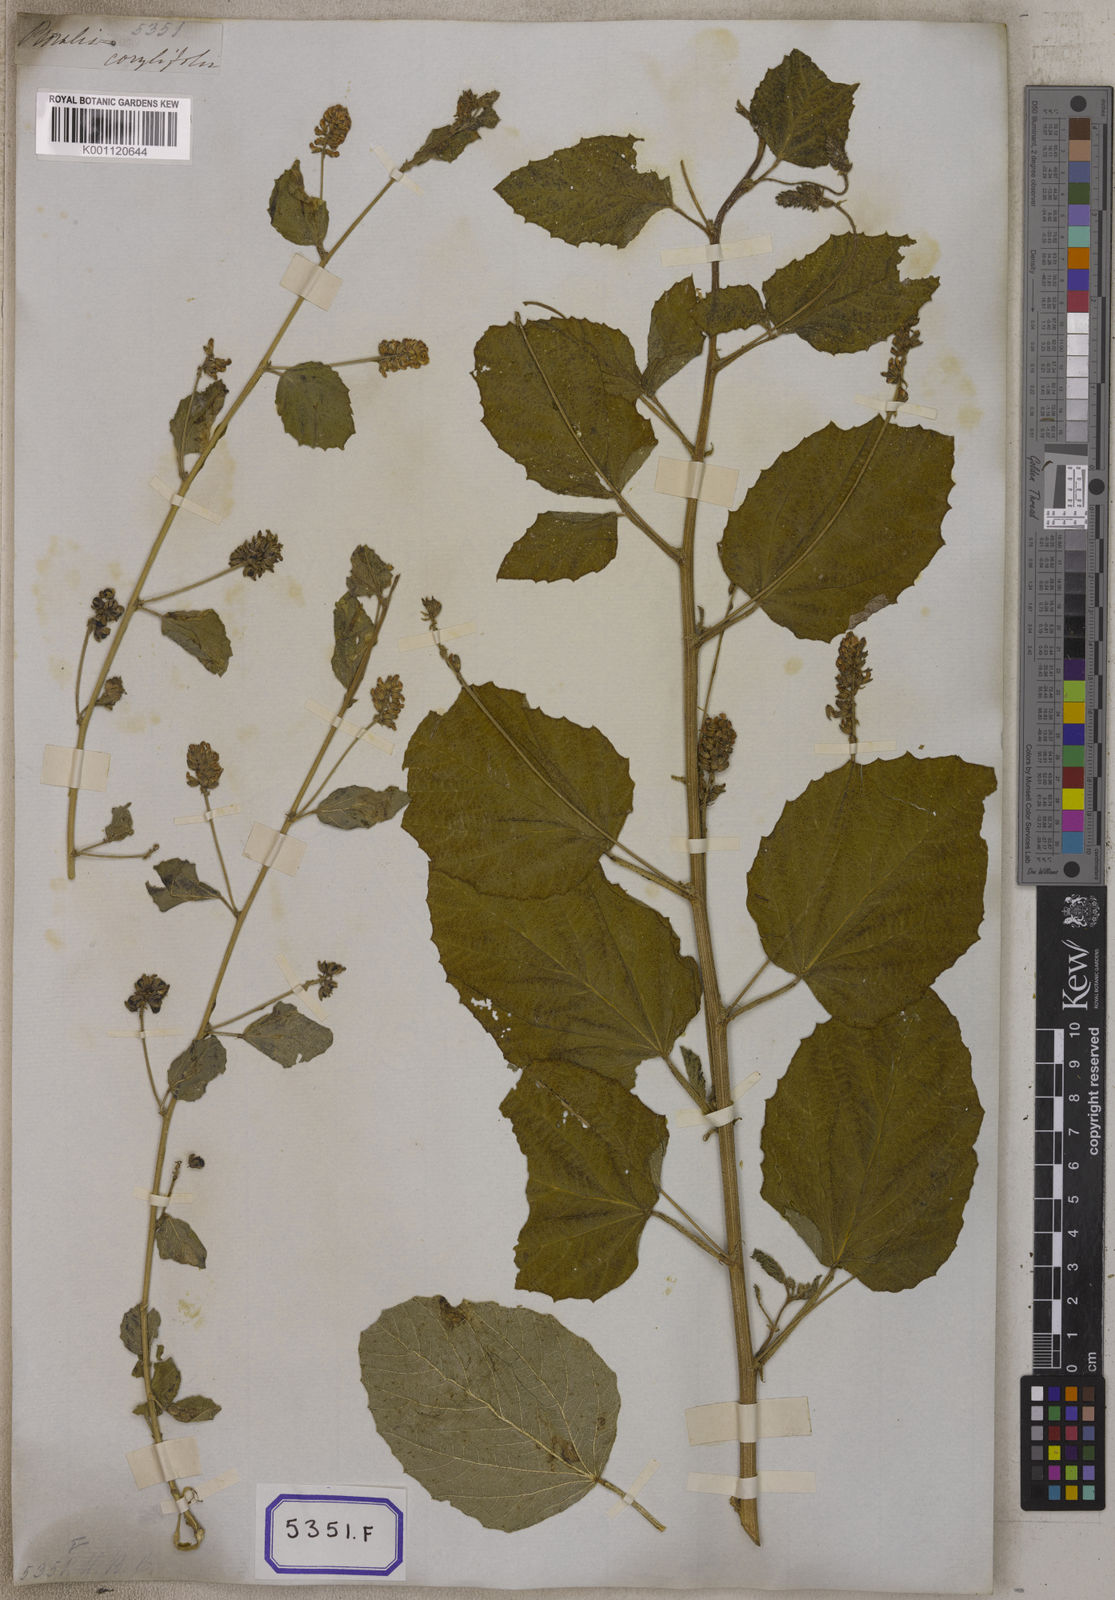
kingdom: Plantae
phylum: Tracheophyta
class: Magnoliopsida
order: Fabales
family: Fabaceae
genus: Cullen
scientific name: Cullen corylifolium
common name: Malaysian scurfpea
